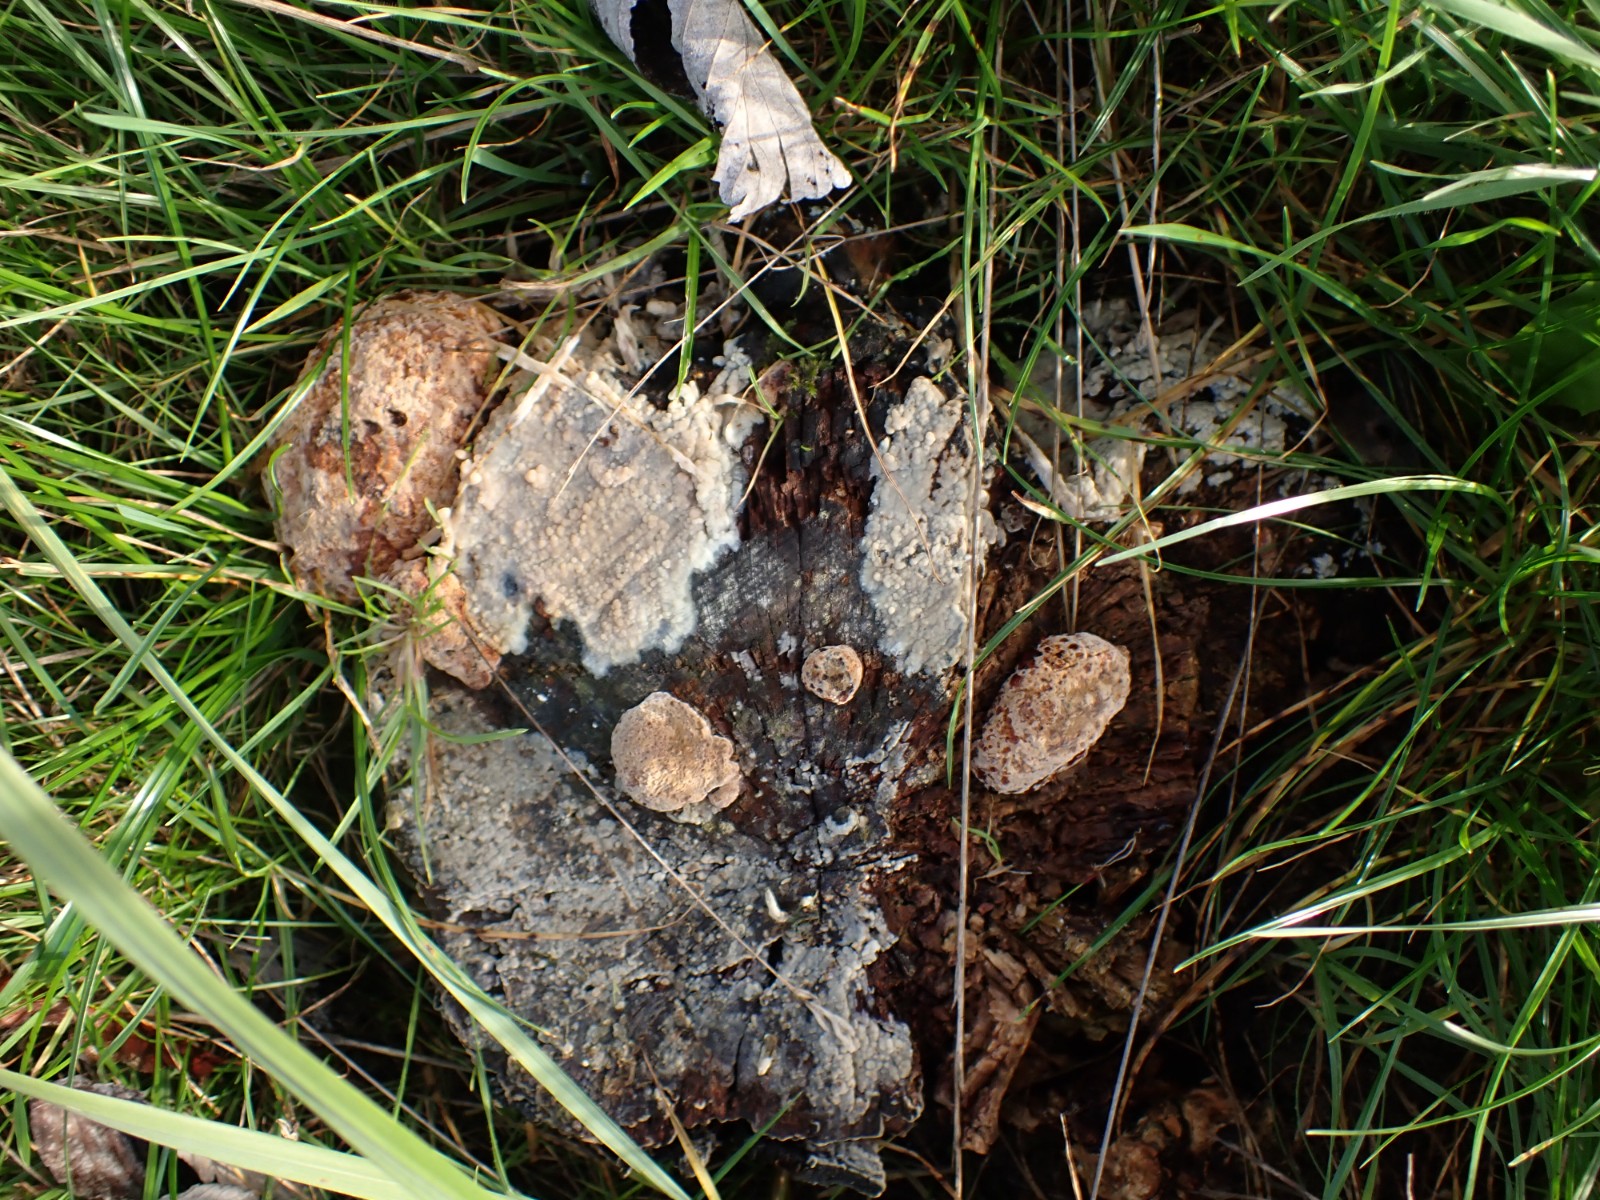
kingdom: Fungi
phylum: Basidiomycota
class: Agaricomycetes
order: Polyporales
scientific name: Polyporales
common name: poresvampordenen
